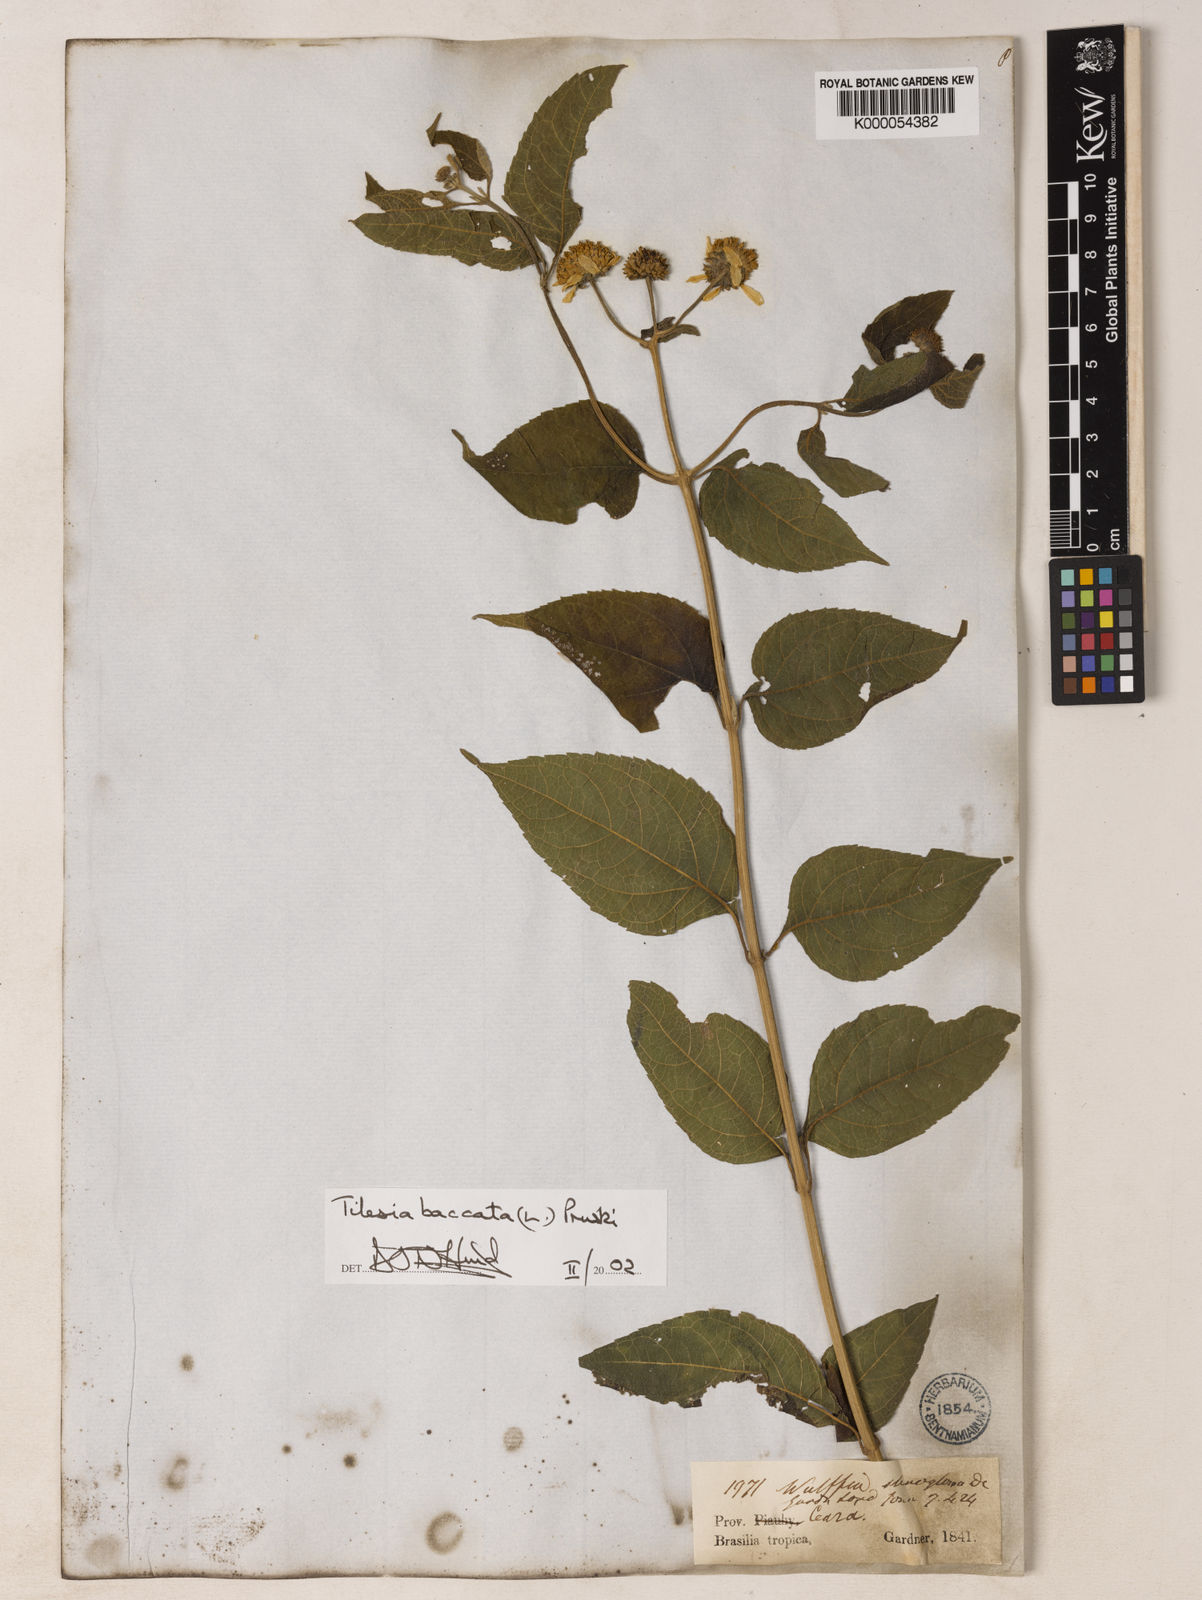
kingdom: Plantae
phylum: Tracheophyta
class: Magnoliopsida
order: Asterales
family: Asteraceae
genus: Tilesia
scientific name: Tilesia baccata
